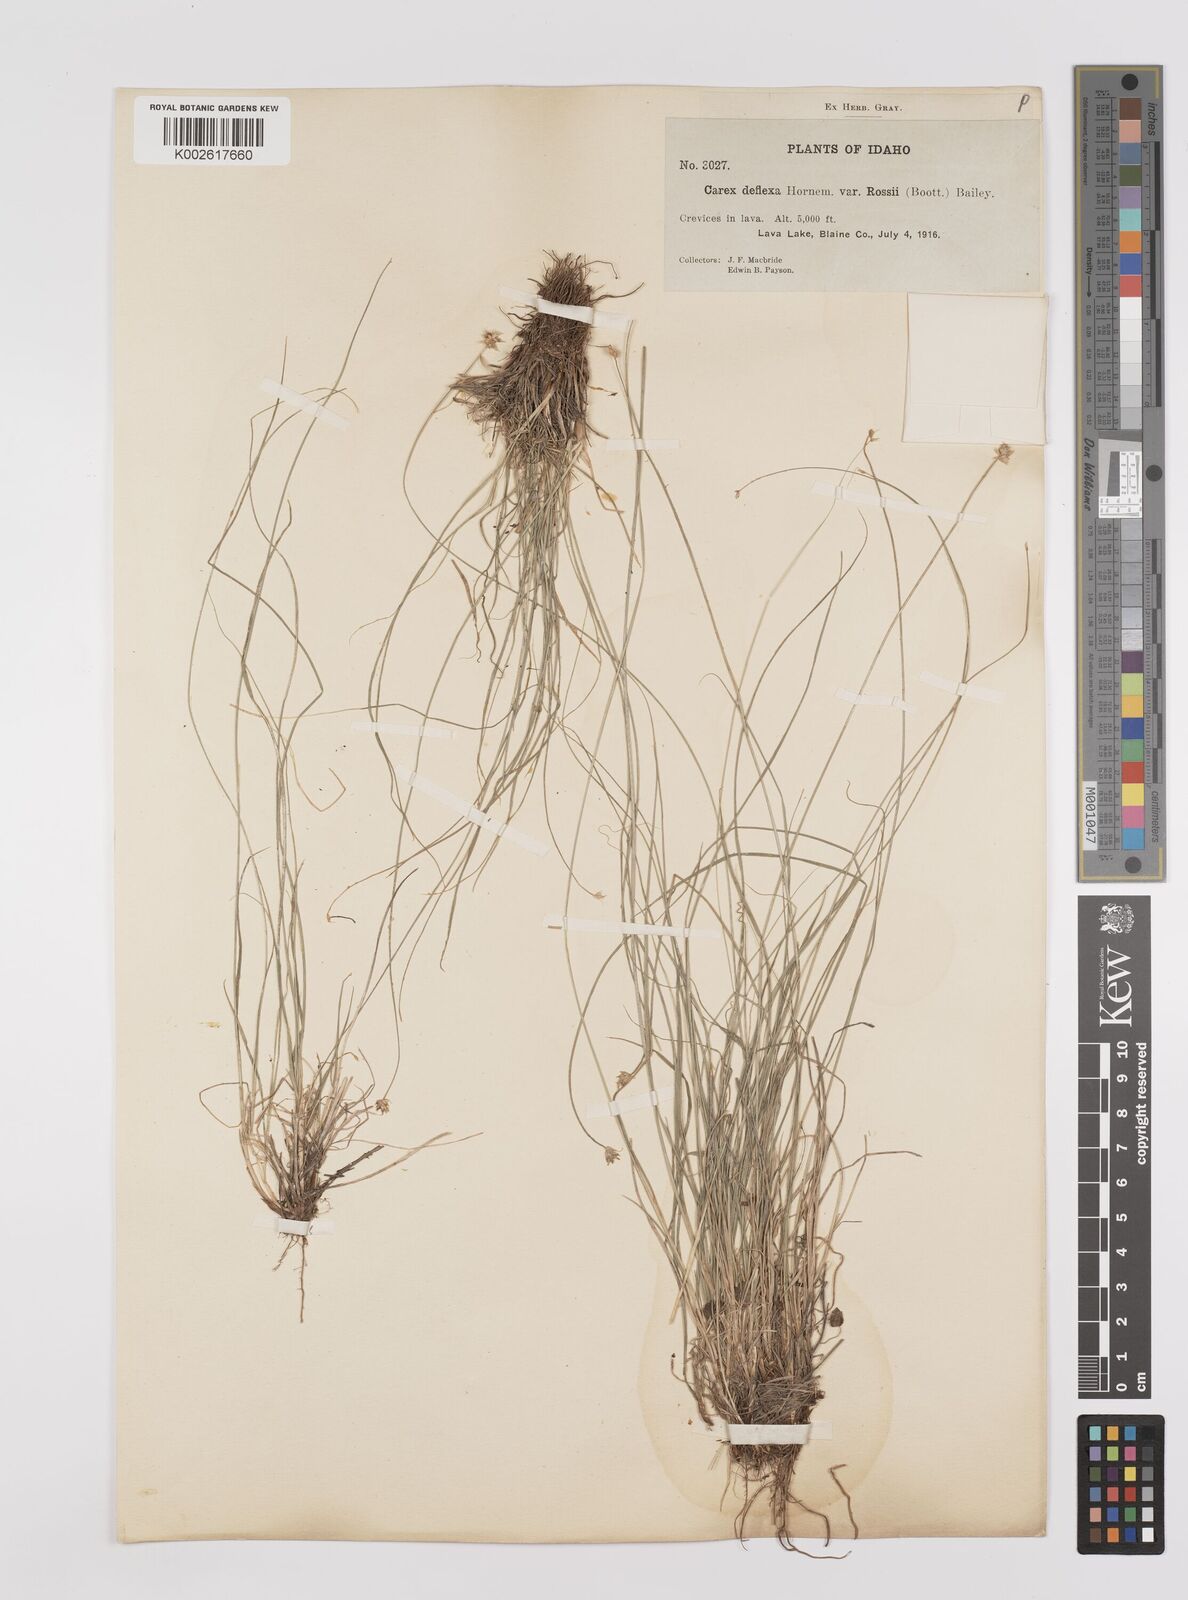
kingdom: Plantae
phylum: Tracheophyta
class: Liliopsida
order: Poales
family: Cyperaceae
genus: Carex
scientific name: Carex rossii
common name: Ross' sedge
